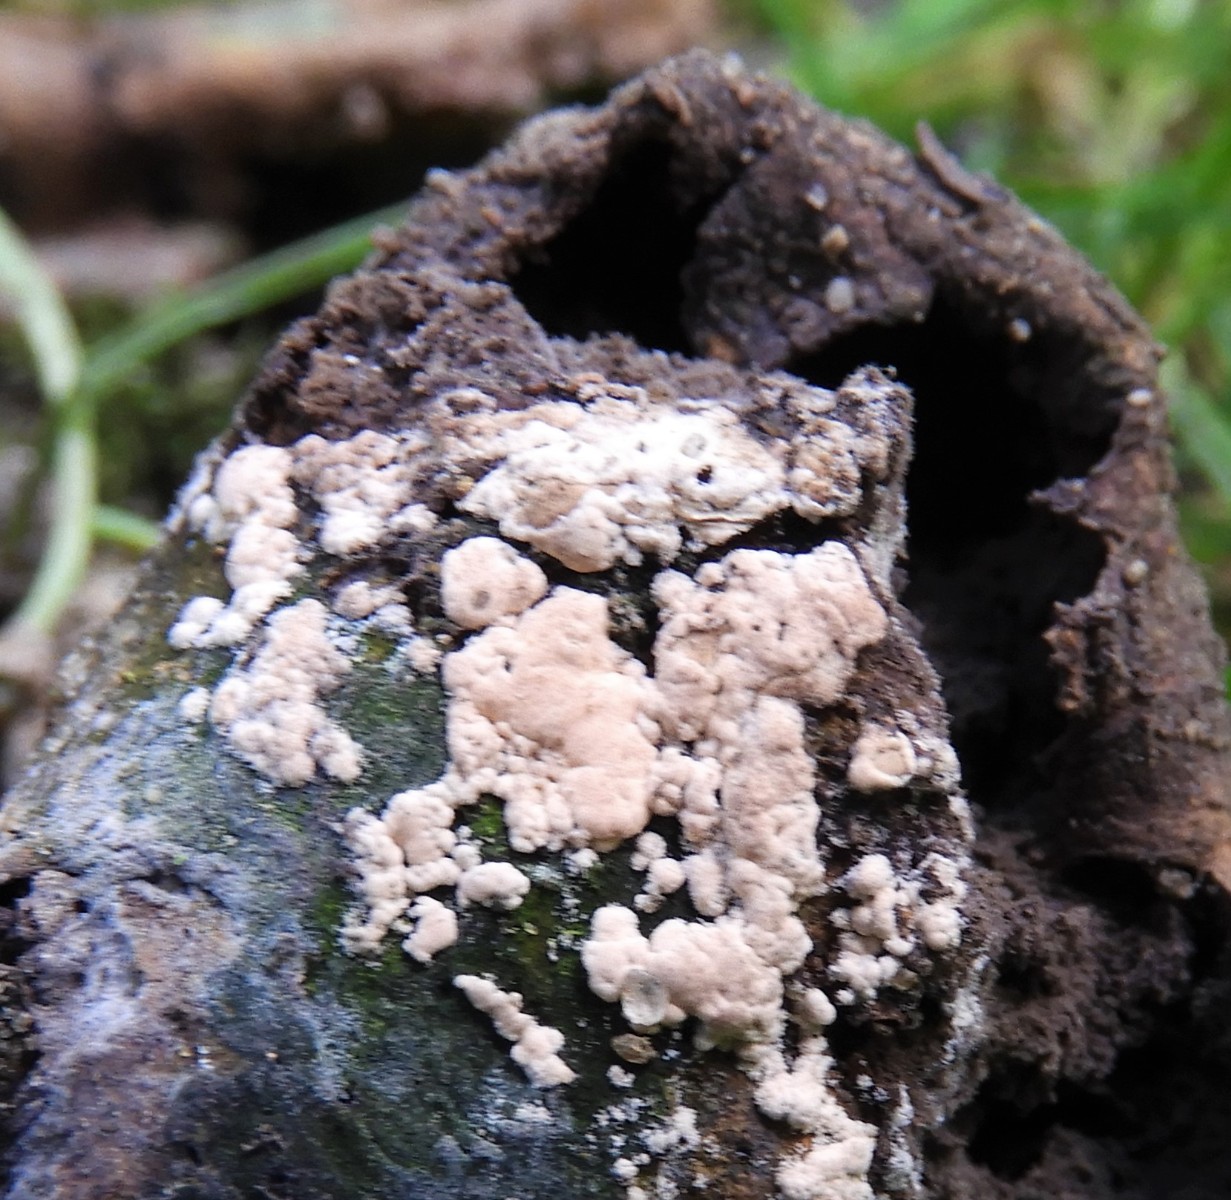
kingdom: Fungi
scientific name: Fungi
